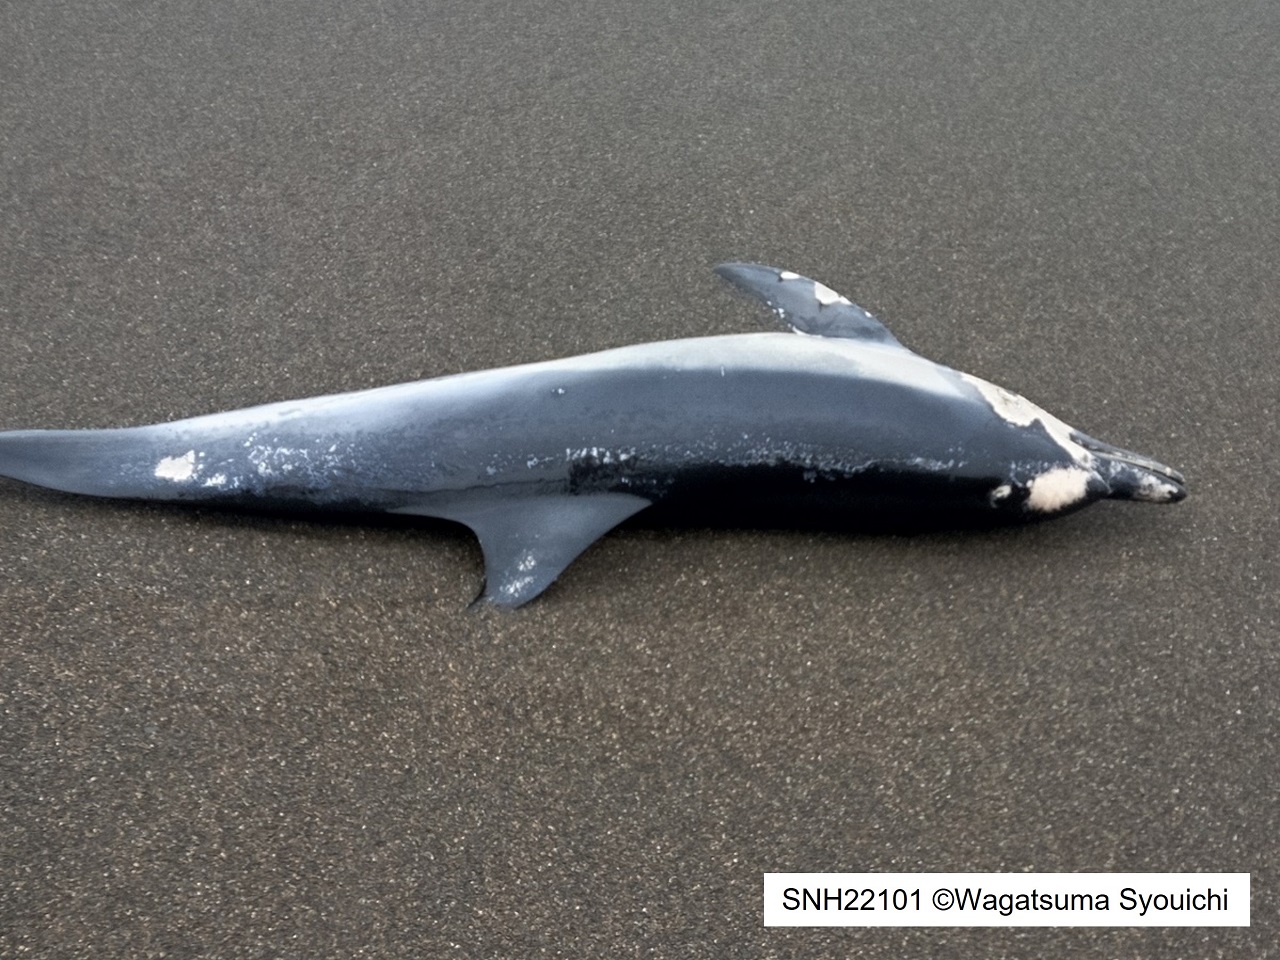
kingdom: Animalia
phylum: Chordata
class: Mammalia
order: Cetacea
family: Delphinidae
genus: Stenella
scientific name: Stenella coeruleoalba
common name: Striped dolphin
